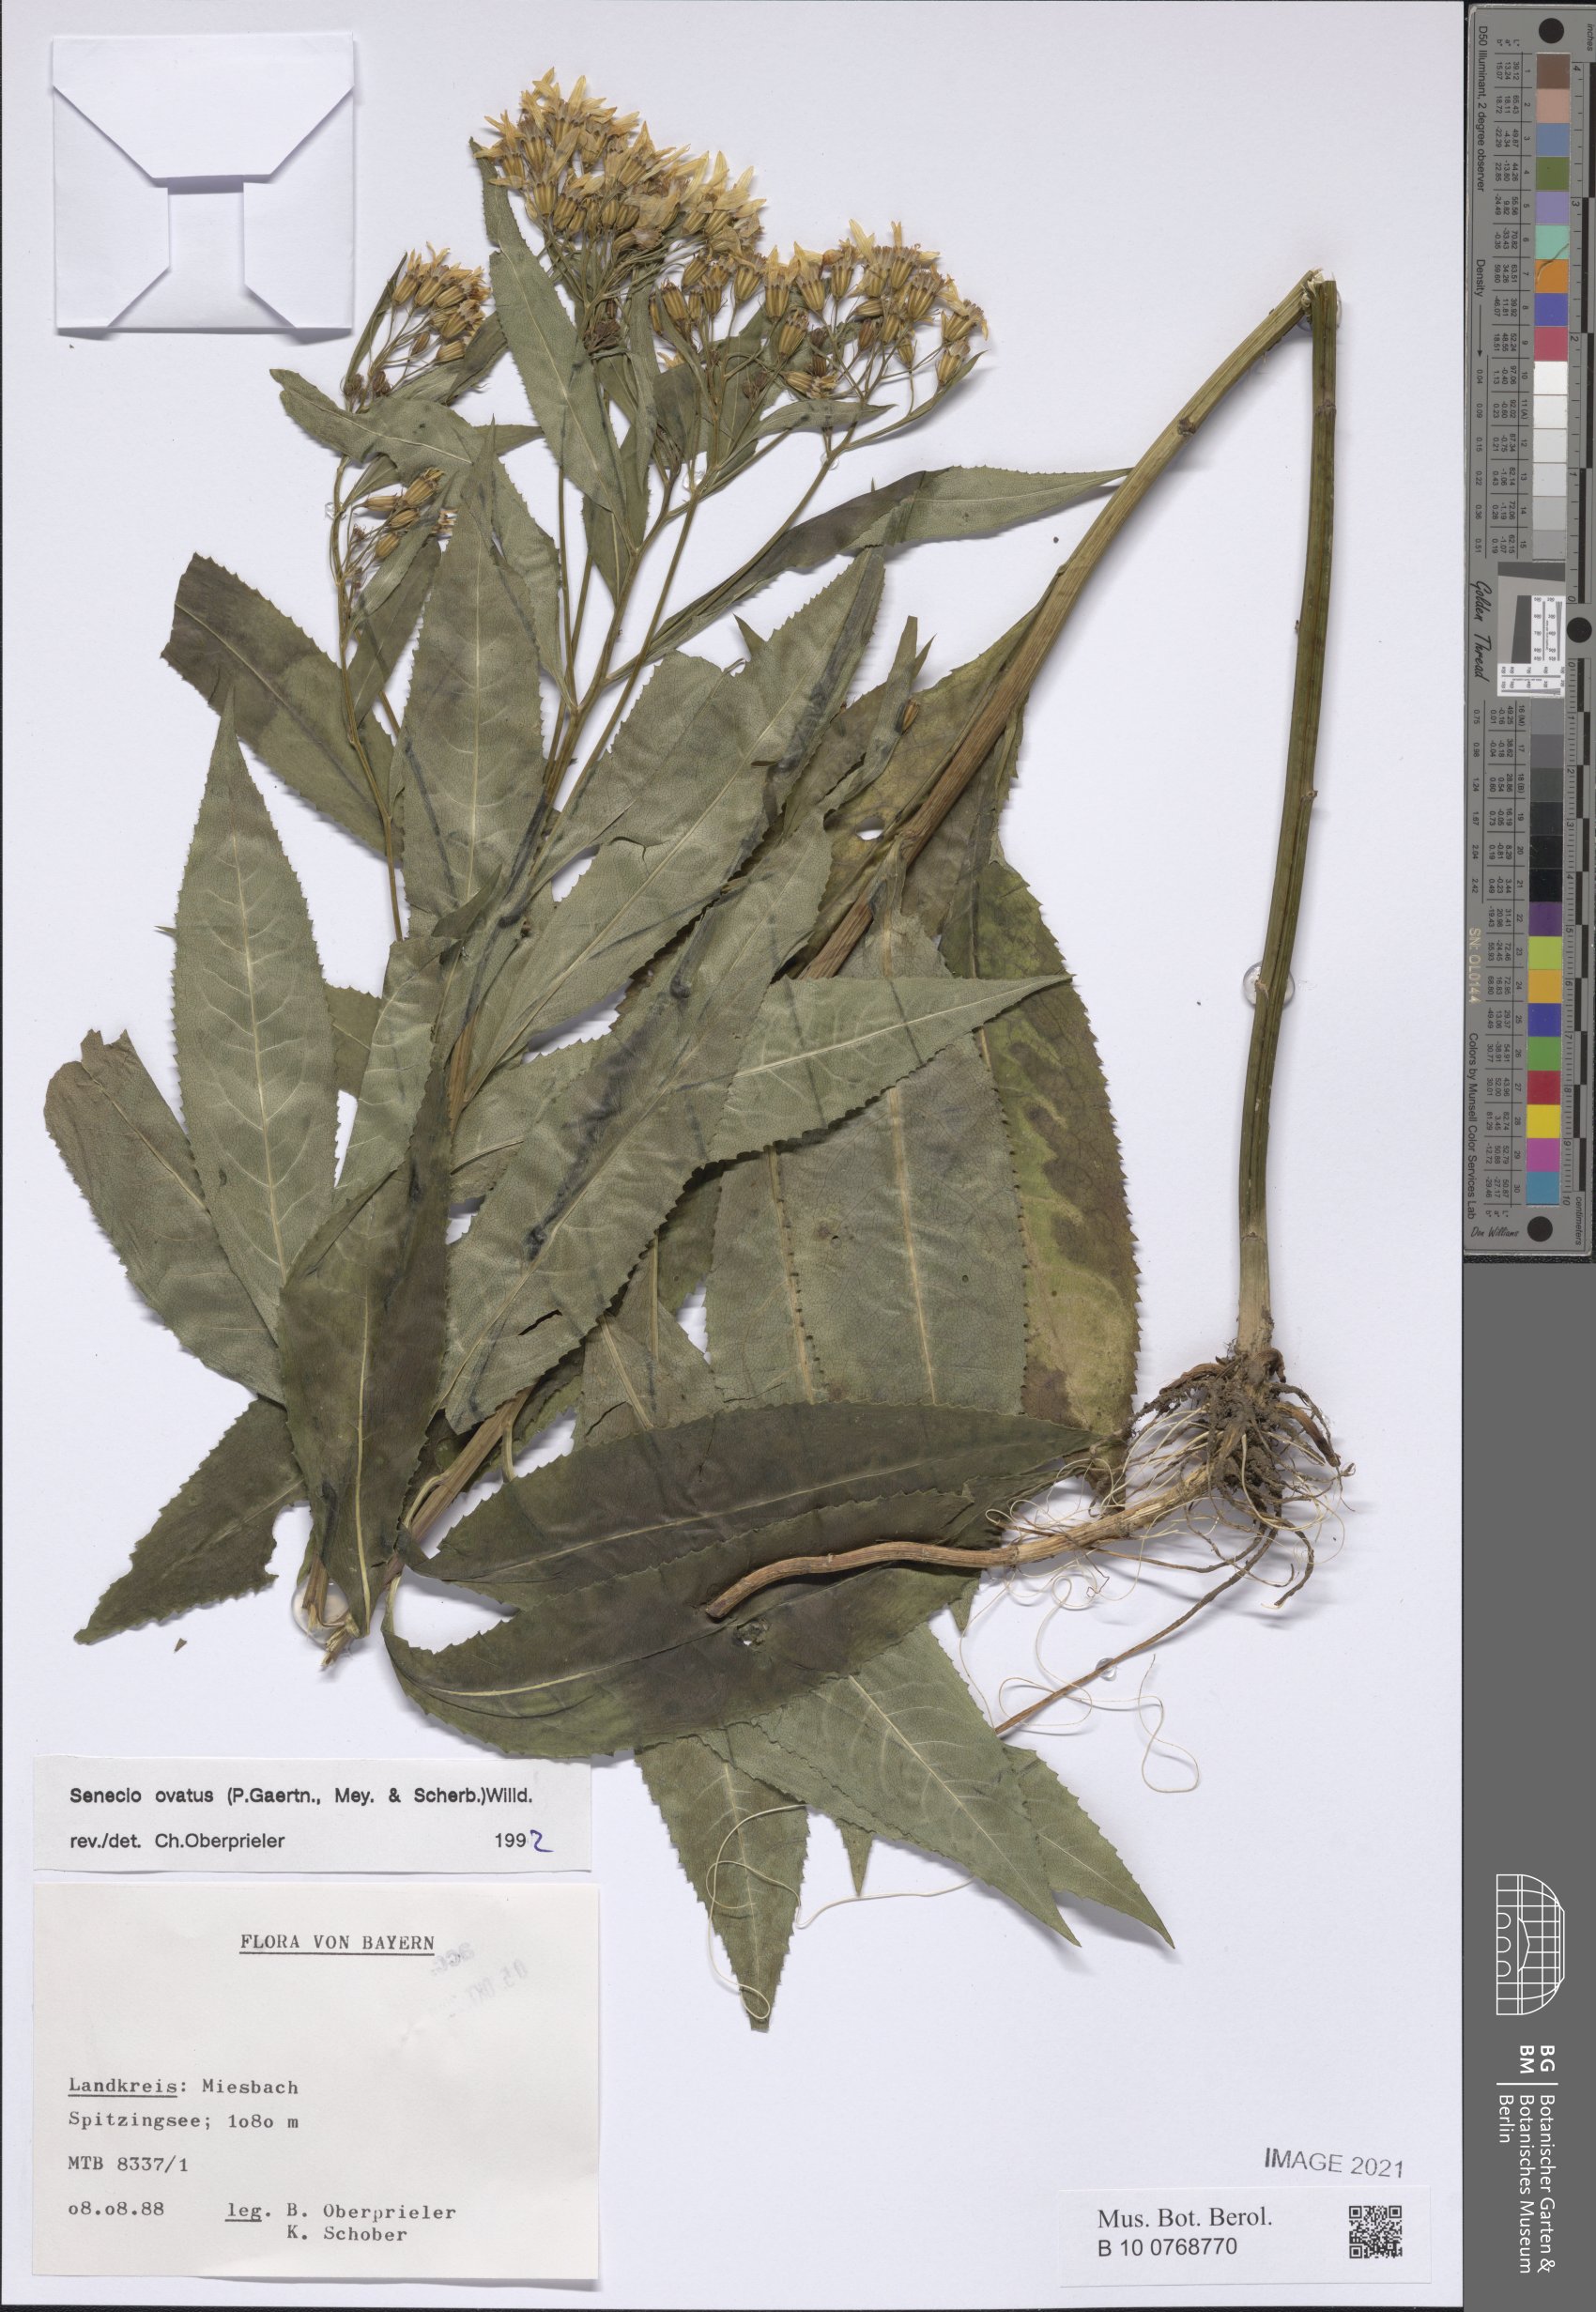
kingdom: Plantae
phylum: Tracheophyta
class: Magnoliopsida
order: Asterales
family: Asteraceae
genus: Senecio
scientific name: Senecio ovatus
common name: Wood ragwort
